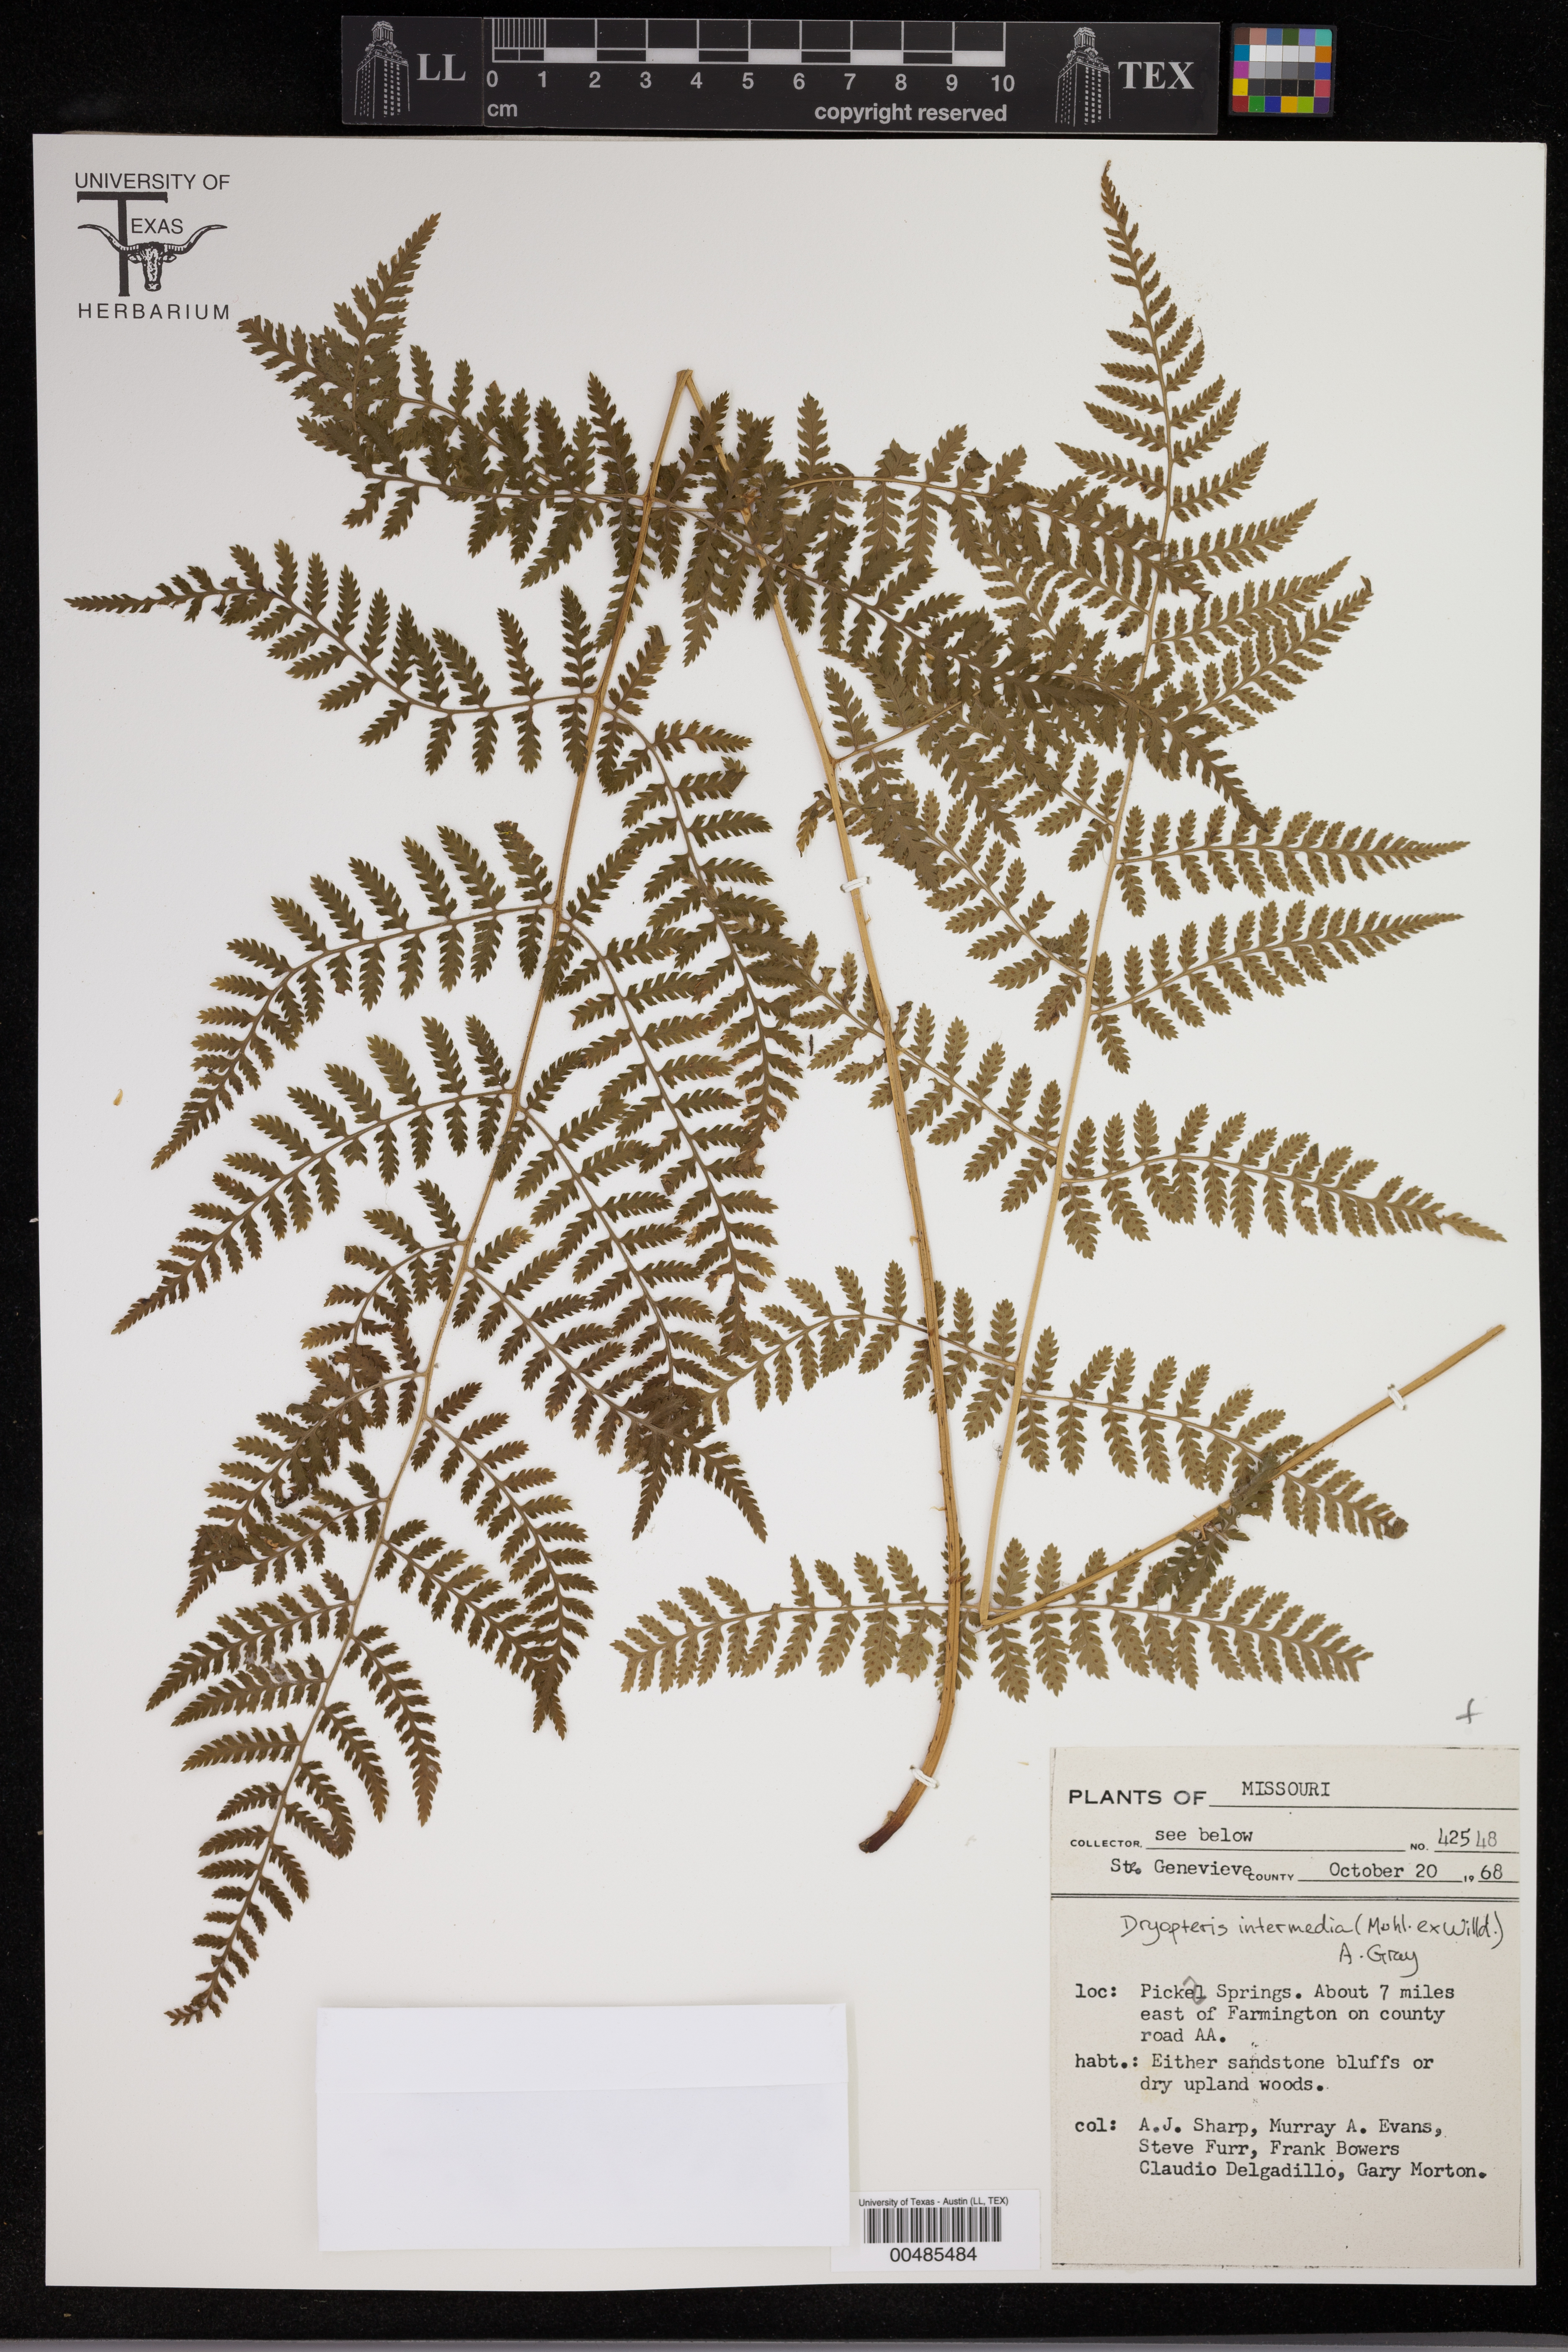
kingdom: Plantae
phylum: Tracheophyta
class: Polypodiopsida
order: Polypodiales
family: Dryopteridaceae
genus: Dryopteris
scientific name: Dryopteris intermedia
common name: Evergreen wood fern
